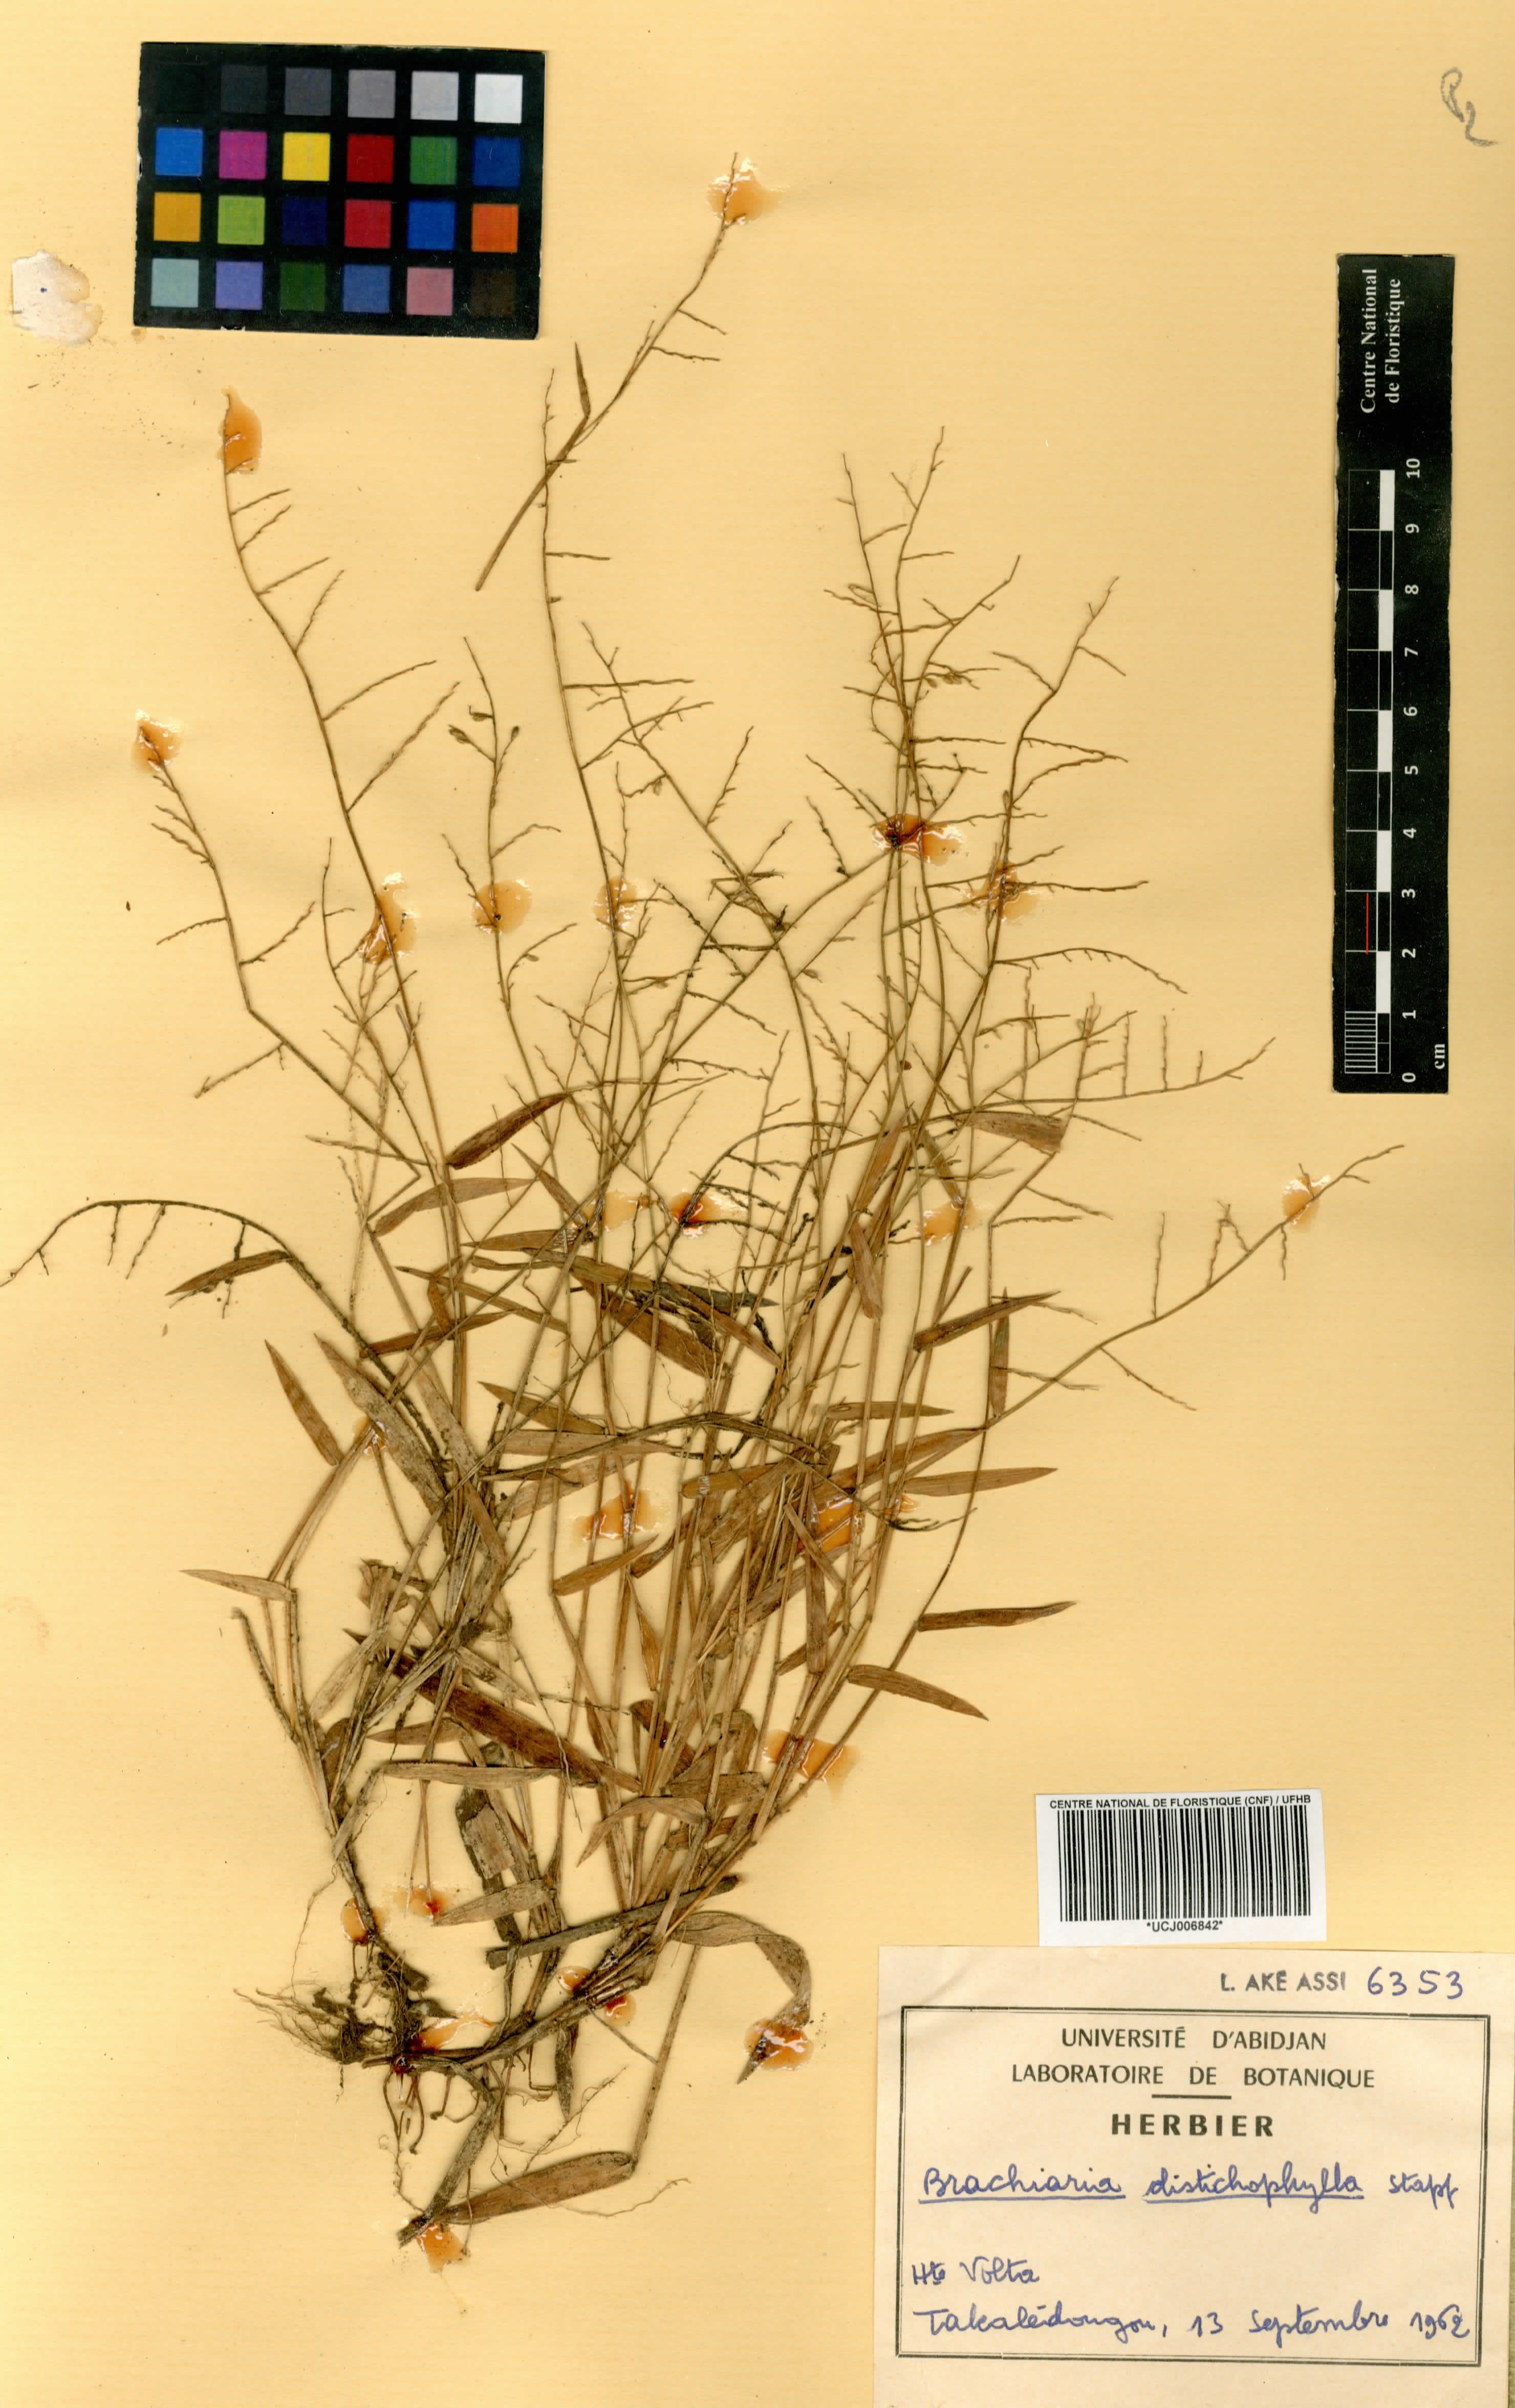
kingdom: Plantae
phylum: Tracheophyta
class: Liliopsida
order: Poales
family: Poaceae
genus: Urochloa
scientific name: Urochloa villosa
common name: Hairy signalgrass
